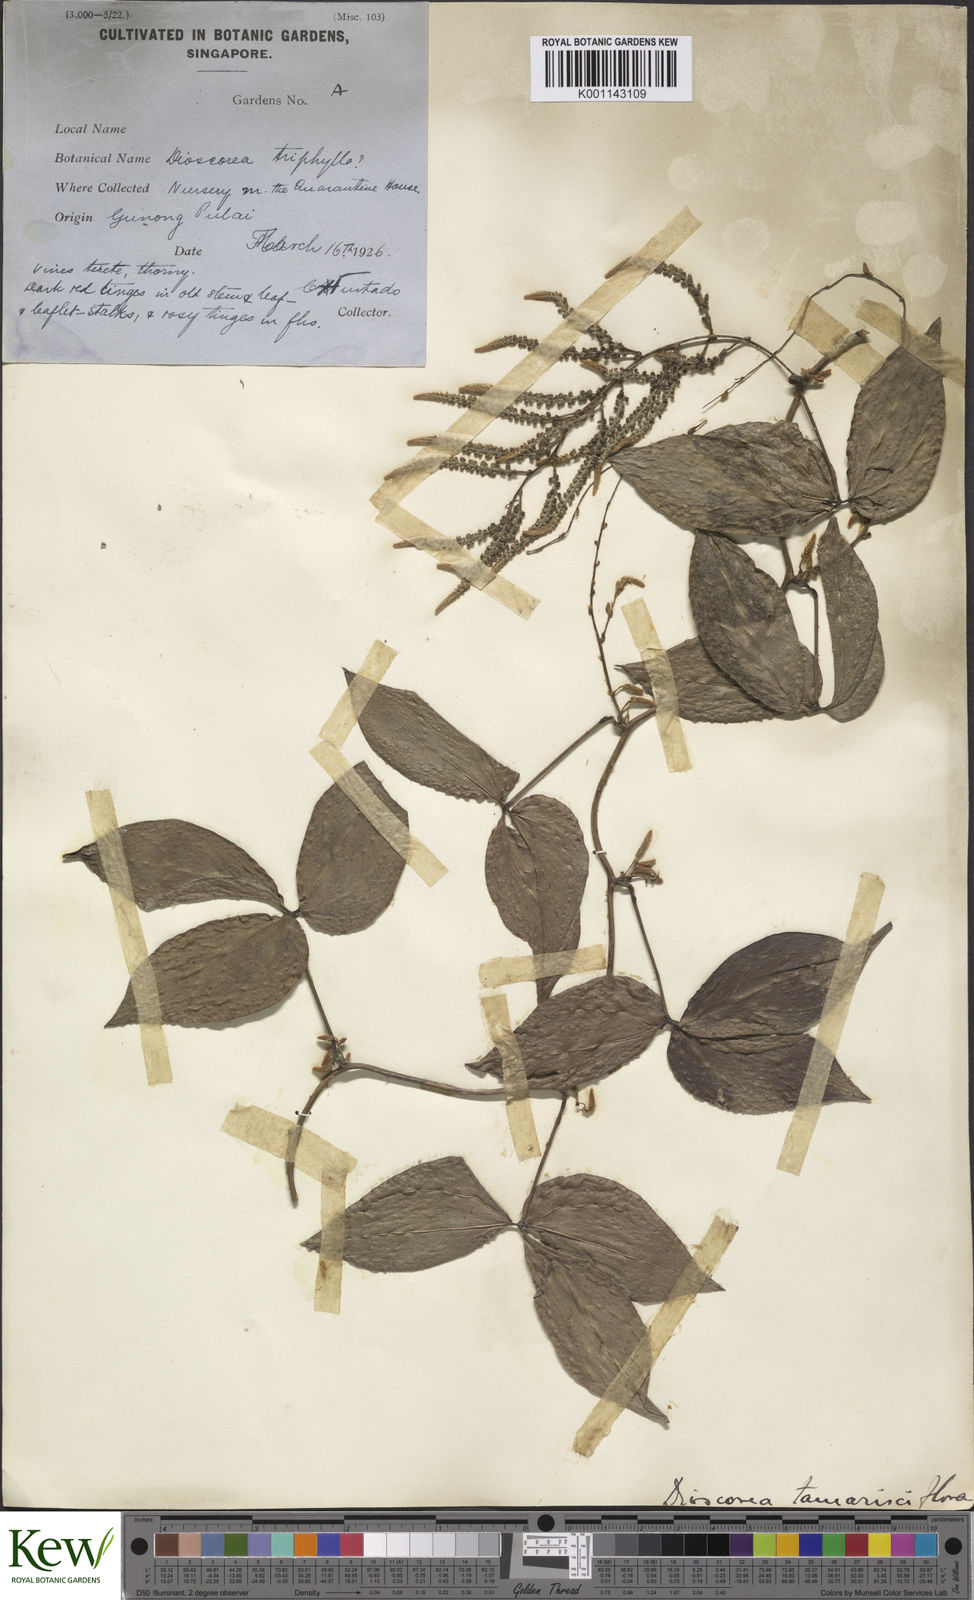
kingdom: Plantae
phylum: Tracheophyta
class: Liliopsida
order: Dioscoreales
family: Dioscoreaceae
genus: Dioscorea
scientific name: Dioscorea tamarisciflora
